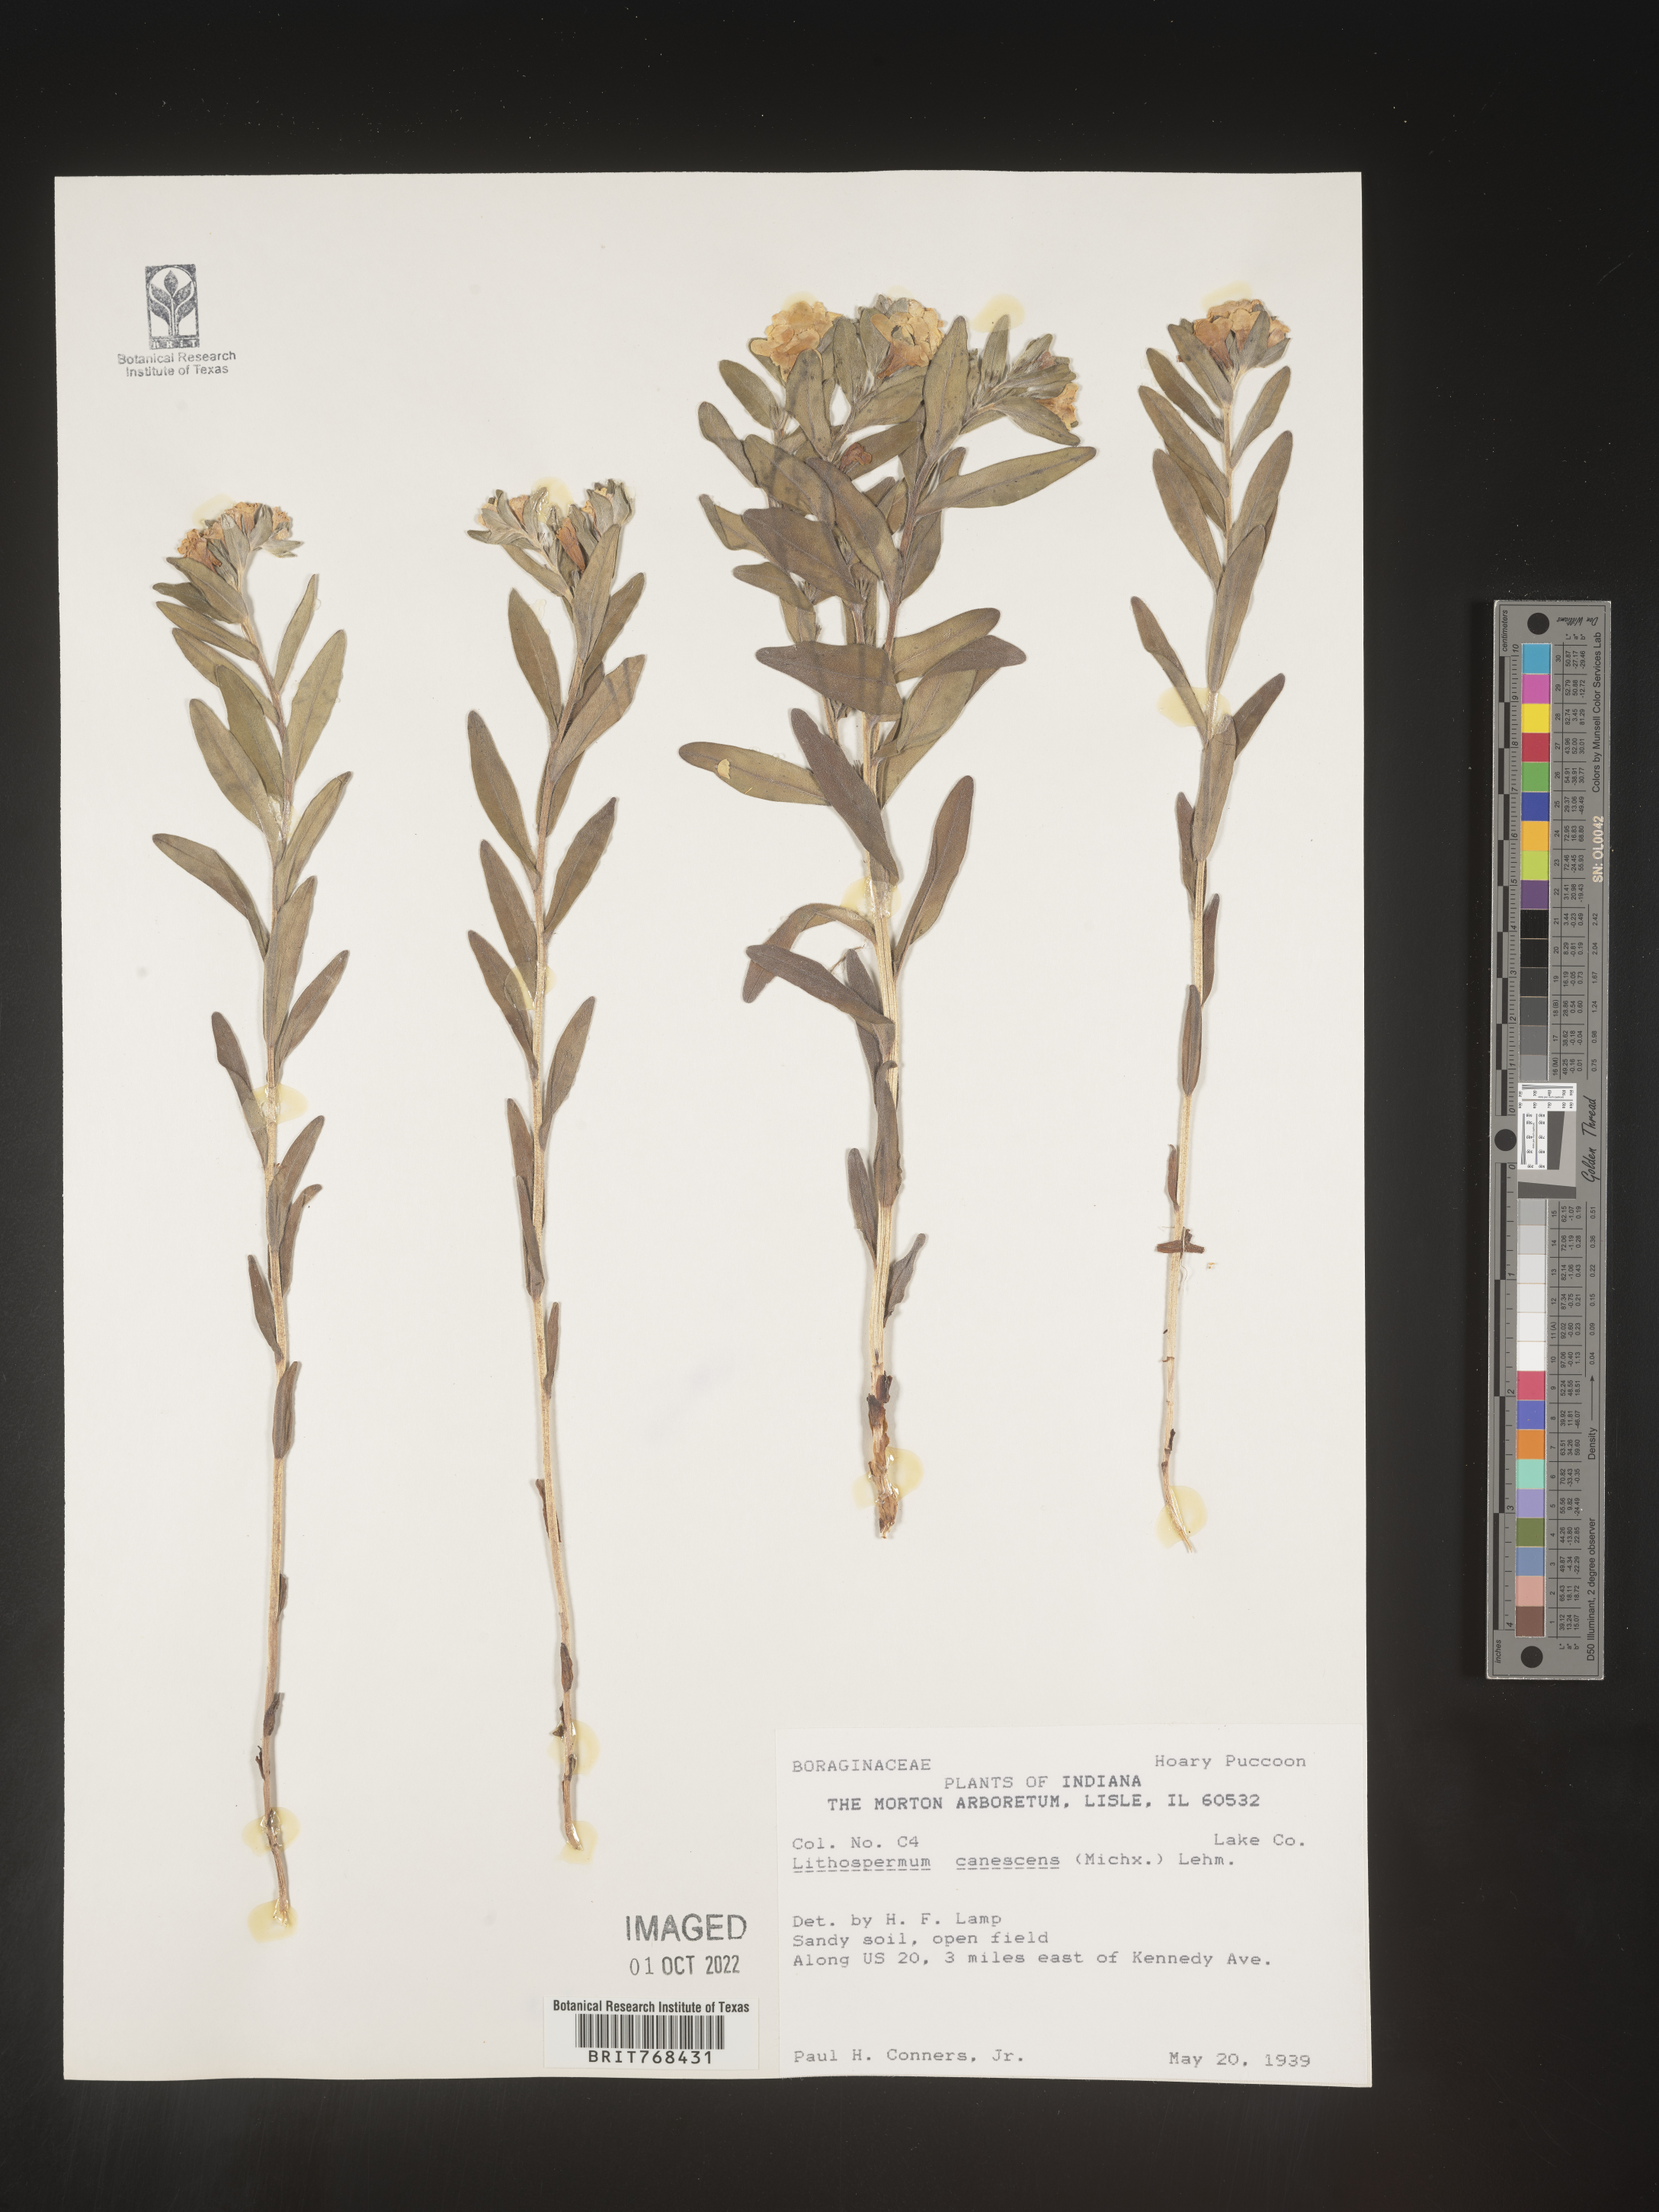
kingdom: Plantae
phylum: Tracheophyta
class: Magnoliopsida
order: Boraginales
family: Boraginaceae
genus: Lithospermum
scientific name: Lithospermum canescens
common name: Hoary puccoon
